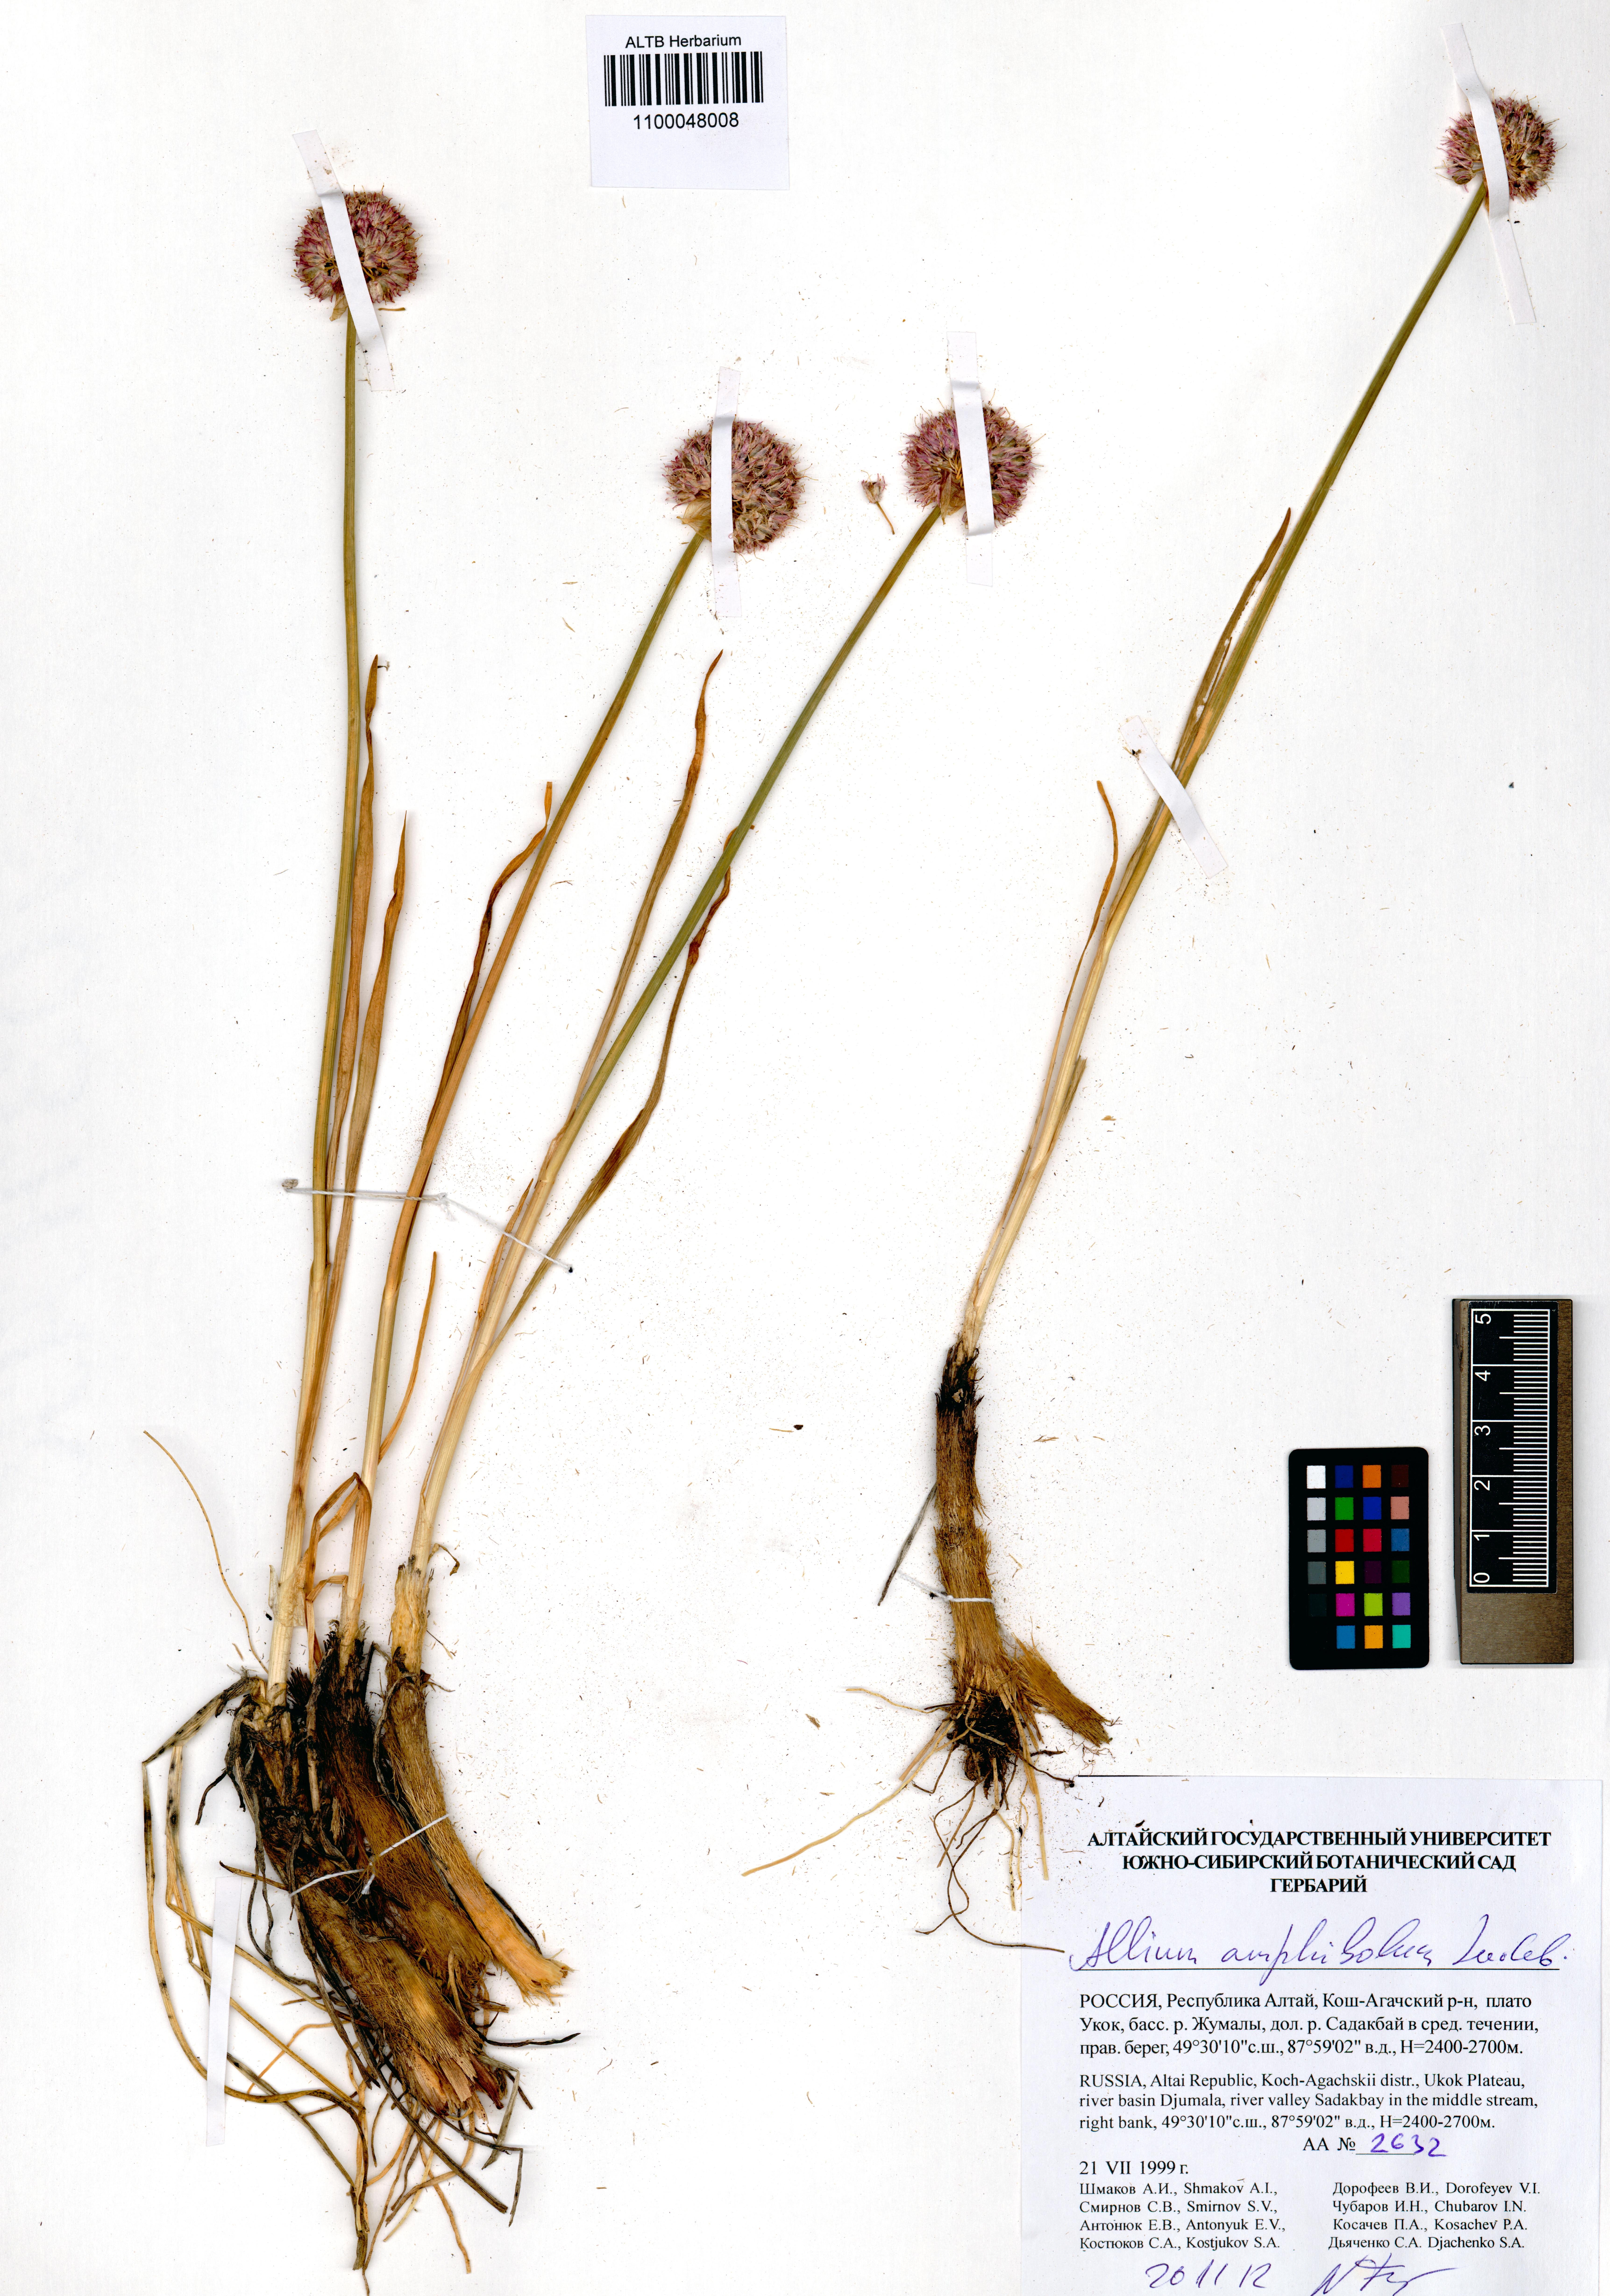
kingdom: Plantae
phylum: Tracheophyta
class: Liliopsida
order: Asparagales
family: Amaryllidaceae
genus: Allium
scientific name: Allium amphibolum
